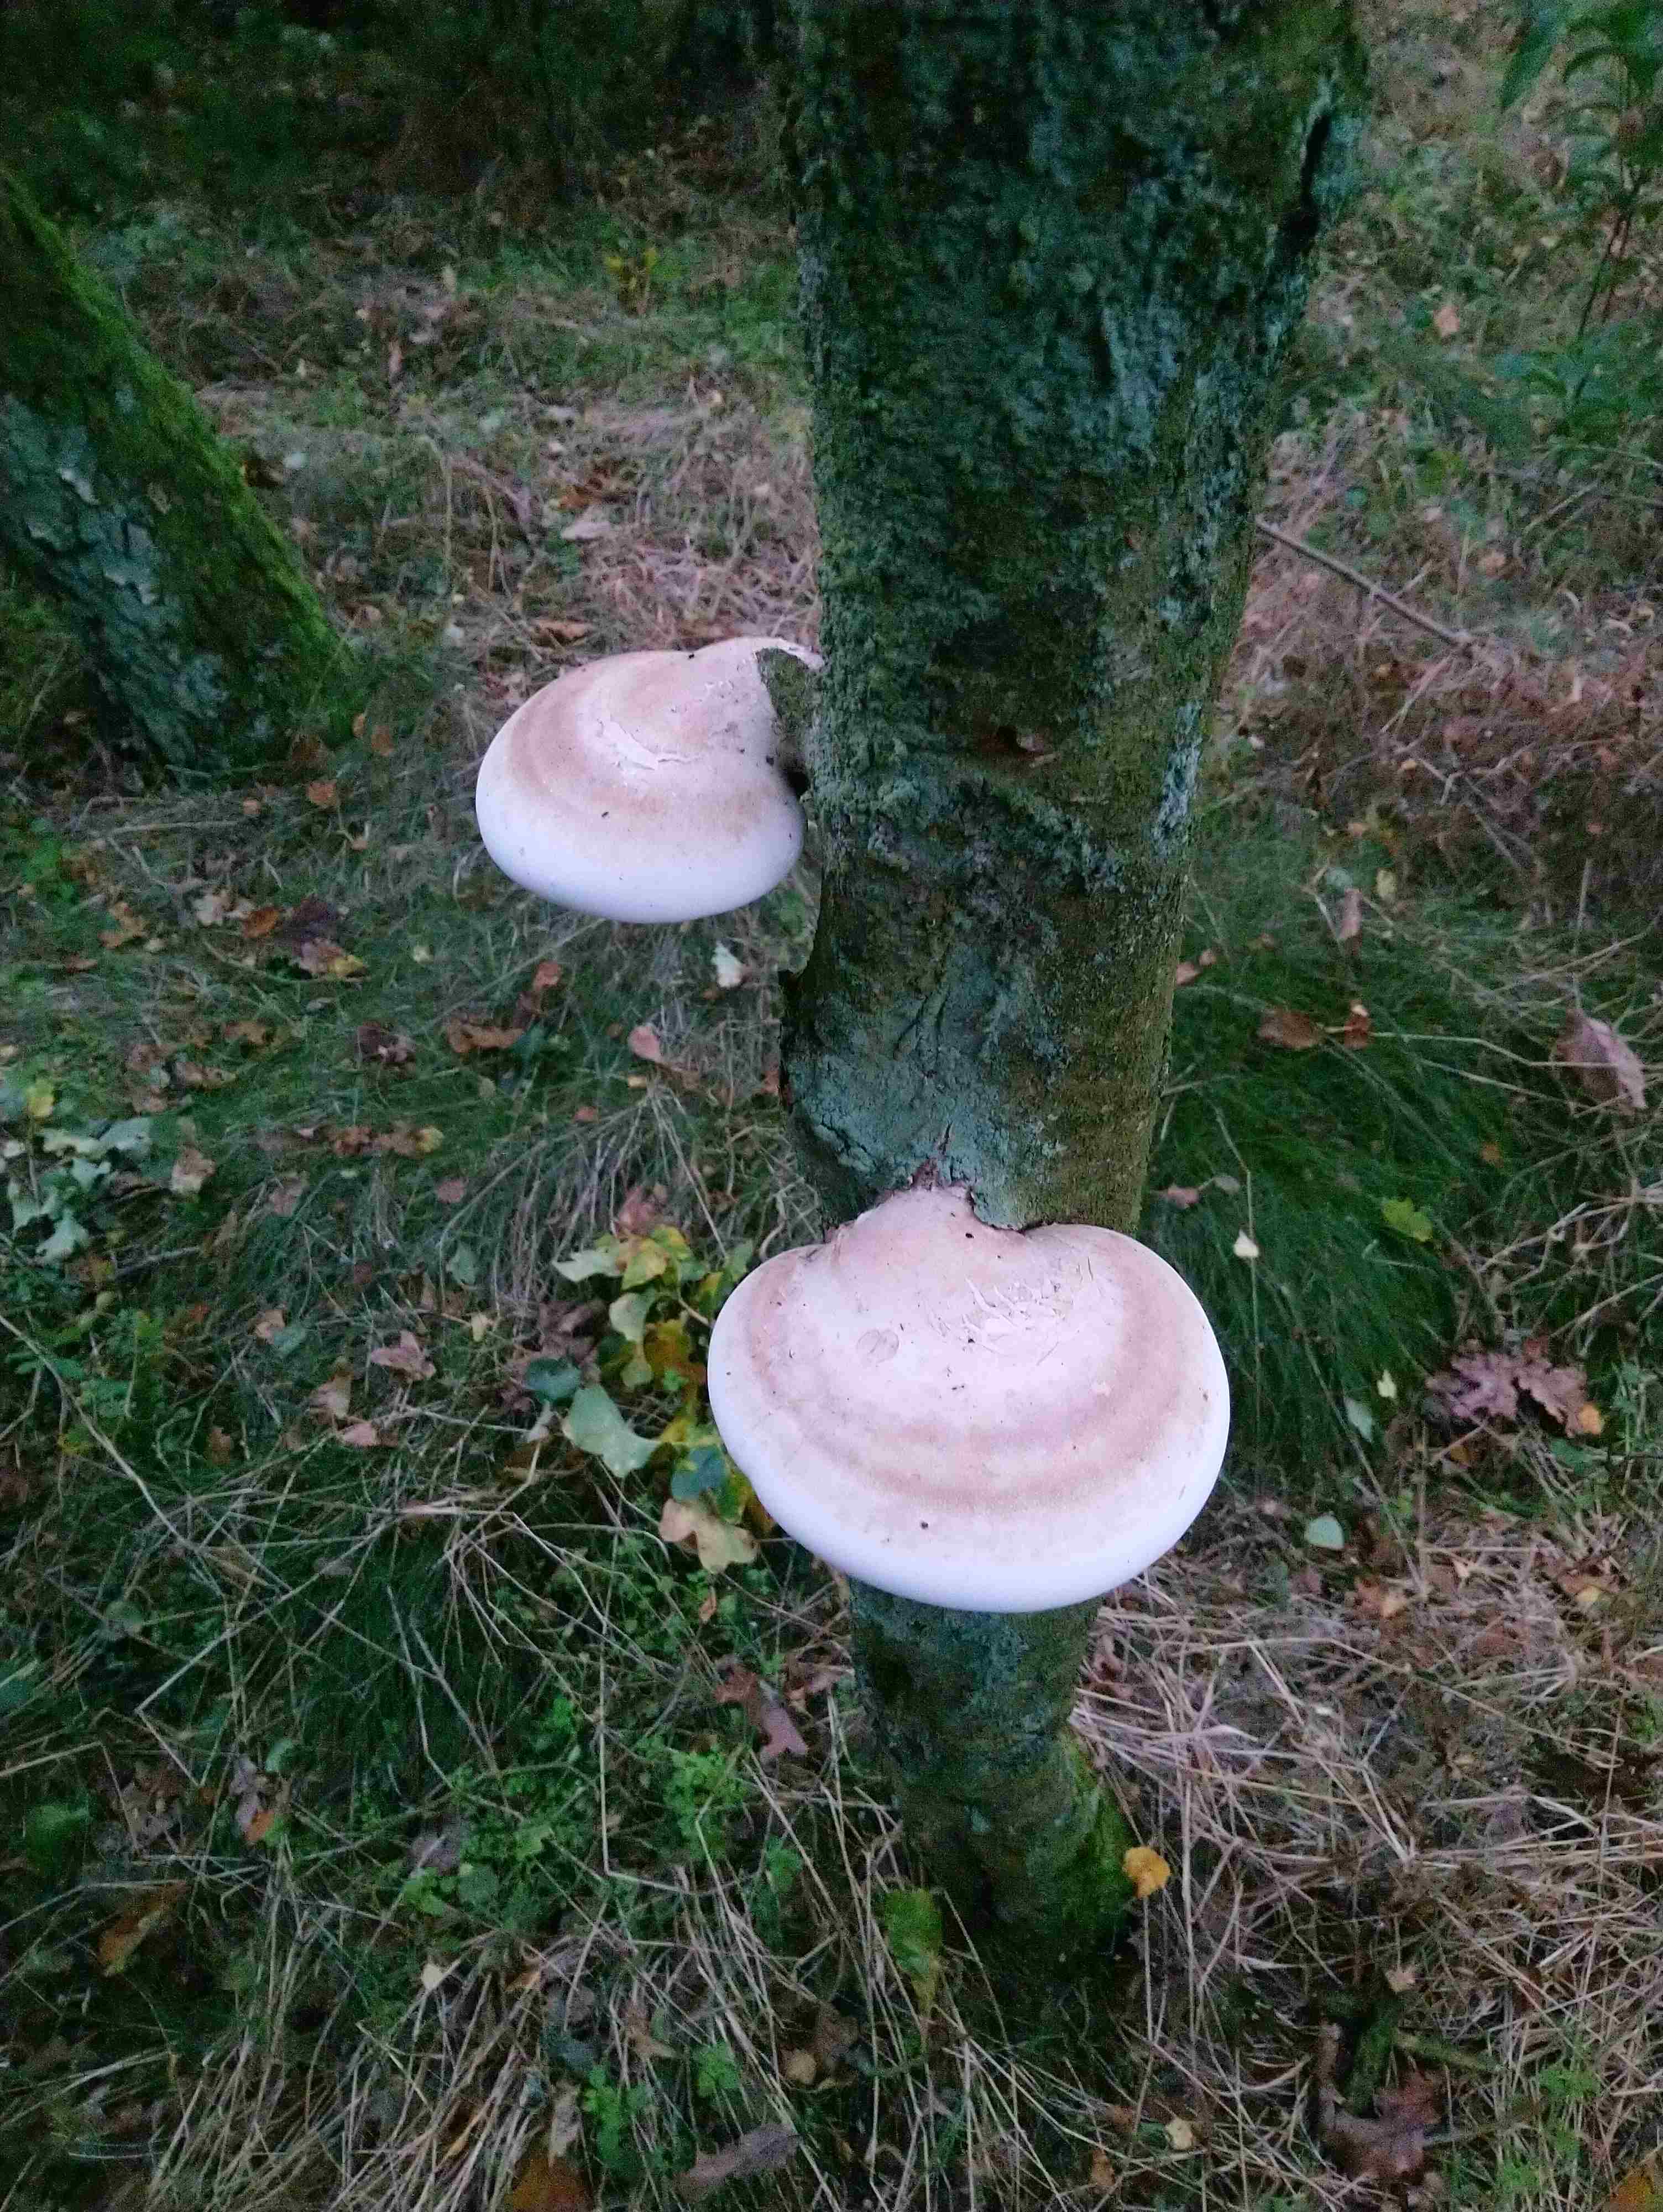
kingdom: Fungi
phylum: Basidiomycota
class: Agaricomycetes
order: Polyporales
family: Fomitopsidaceae
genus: Fomitopsis
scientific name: Fomitopsis betulina
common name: birkeporesvamp
